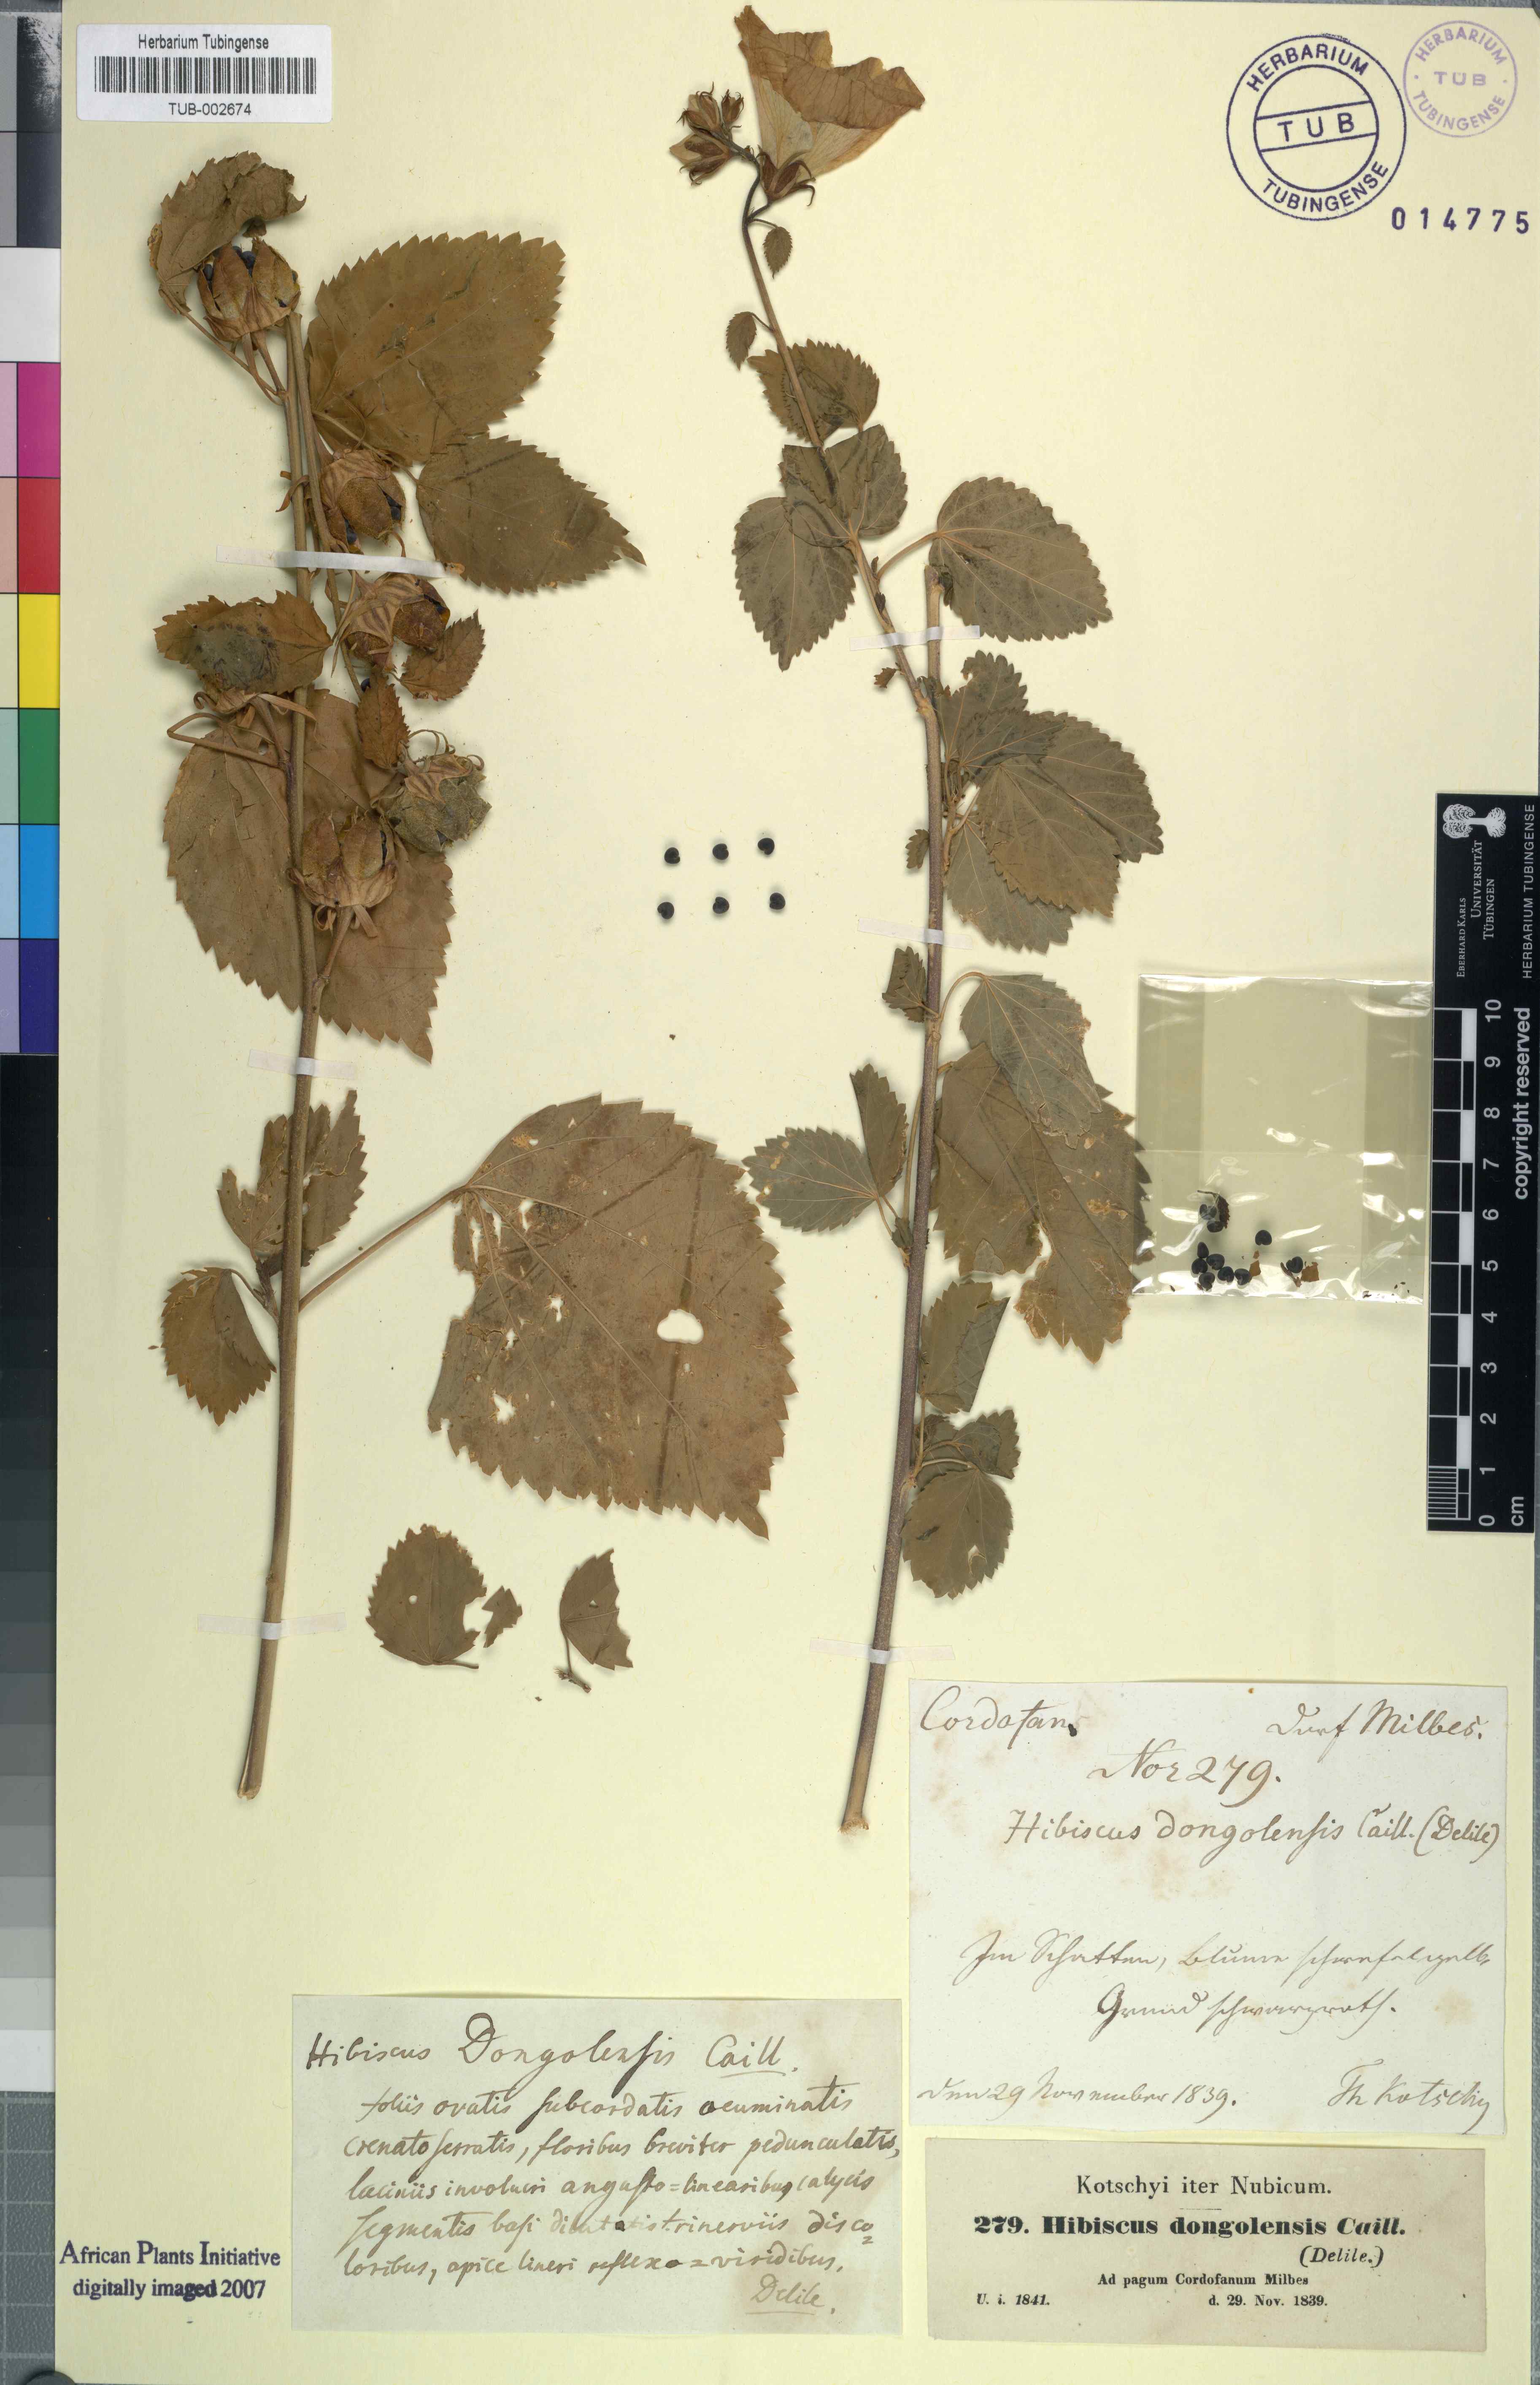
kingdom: Plantae
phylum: Tracheophyta
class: Magnoliopsida
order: Malvales
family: Malvaceae
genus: Hibiscus
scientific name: Hibiscus lunariifolius
